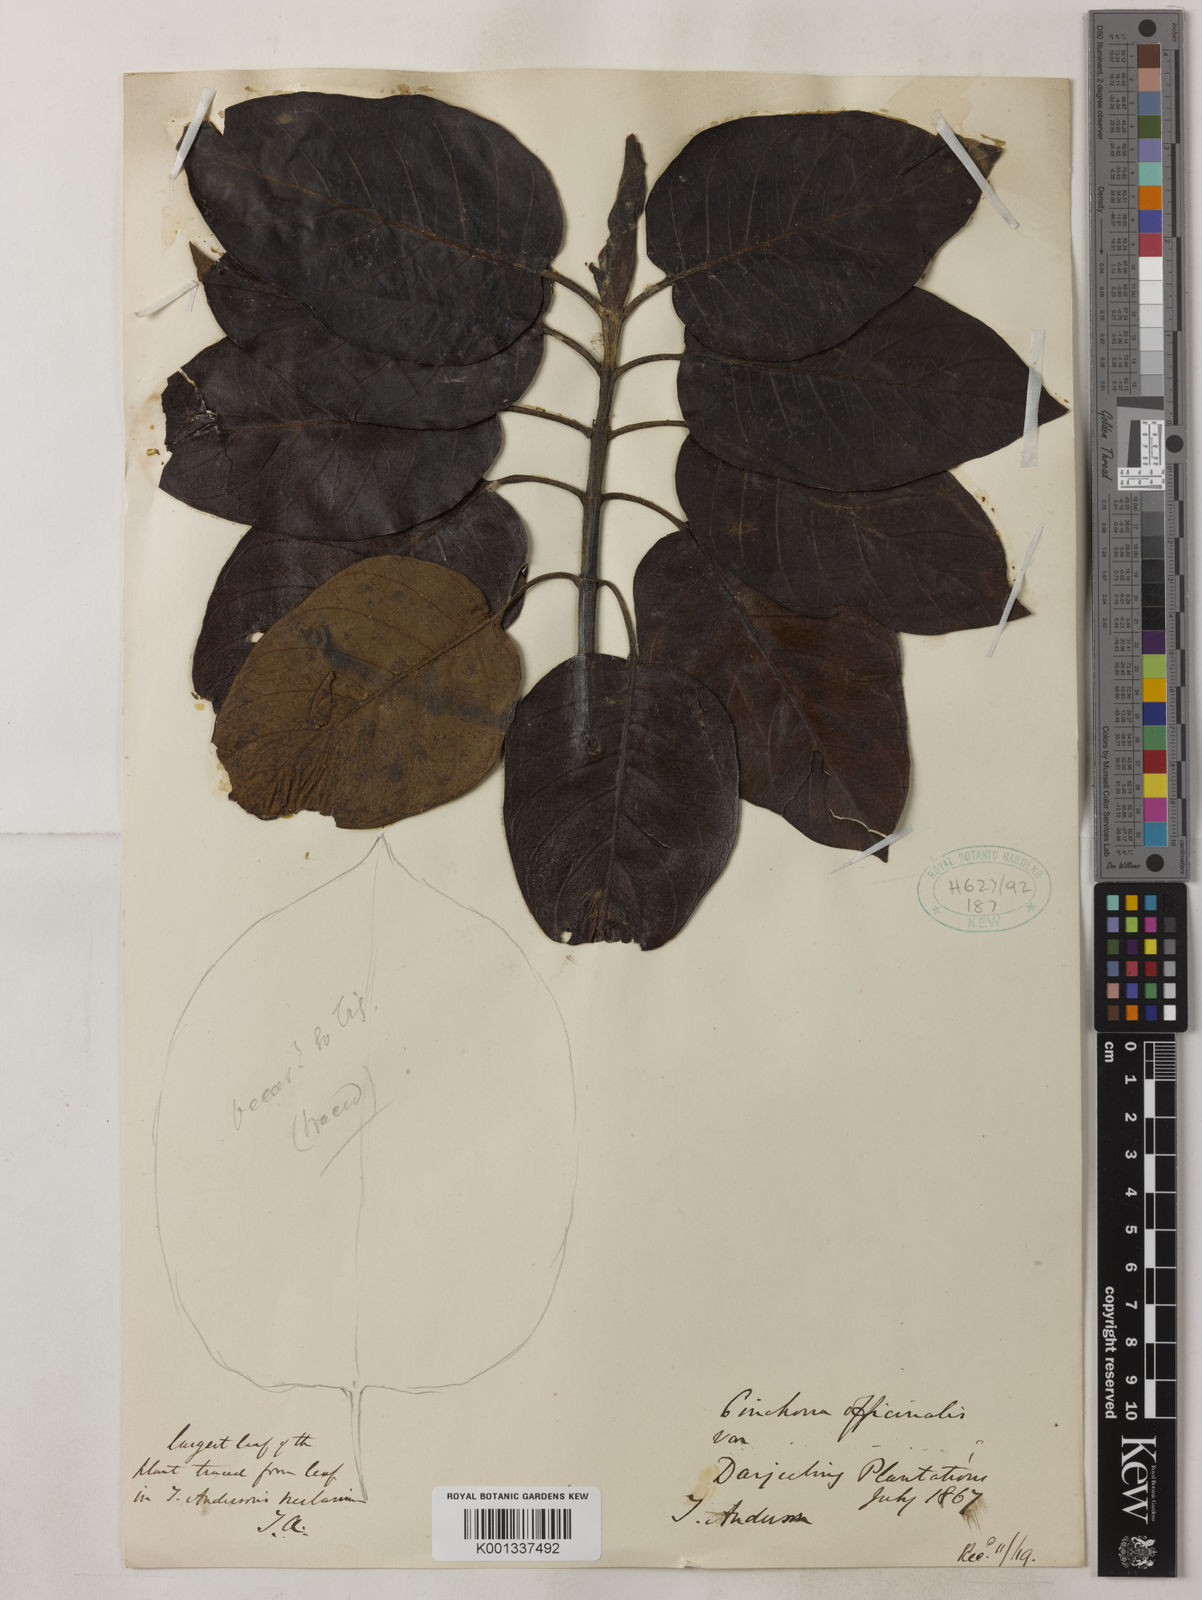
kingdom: Plantae
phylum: Tracheophyta
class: Magnoliopsida
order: Gentianales
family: Rubiaceae
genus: Cinchona
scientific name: Cinchona officinalis
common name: Lojabark
